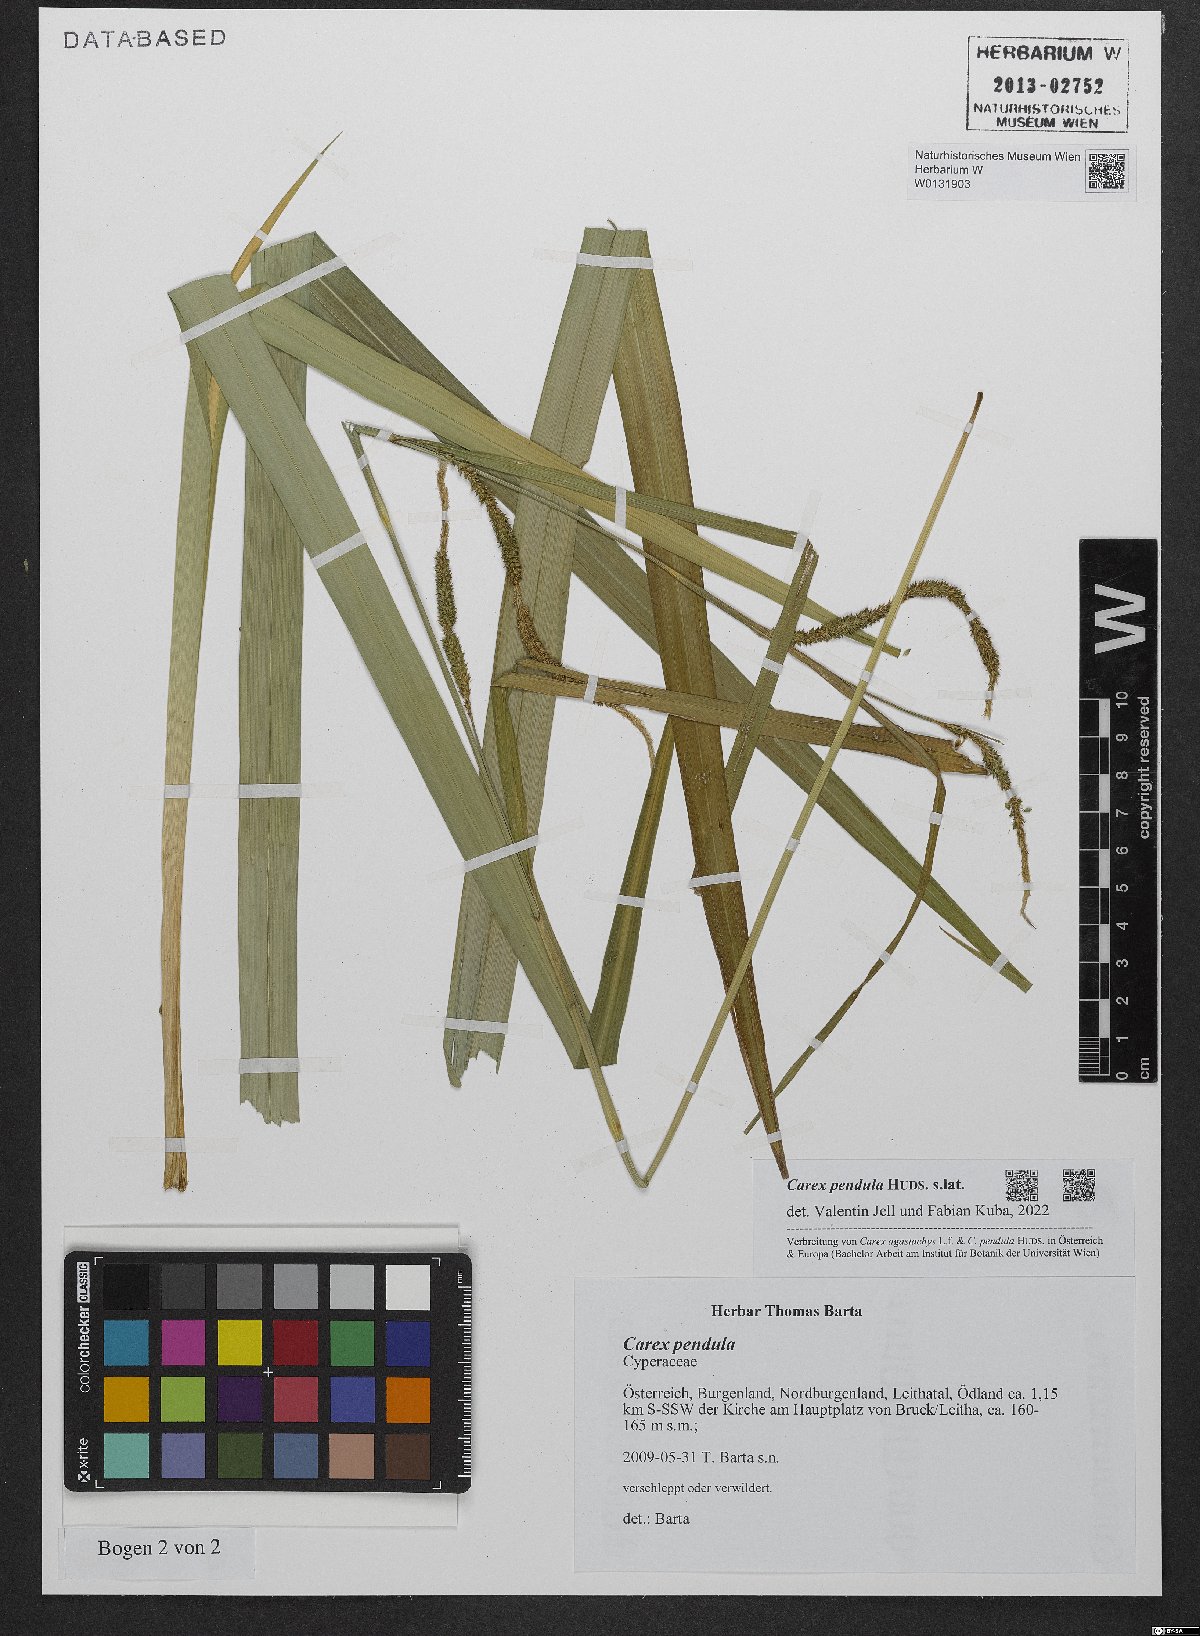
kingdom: Plantae
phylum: Tracheophyta
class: Liliopsida
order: Poales
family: Cyperaceae
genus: Carex
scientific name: Carex pendula
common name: Pendulous sedge
